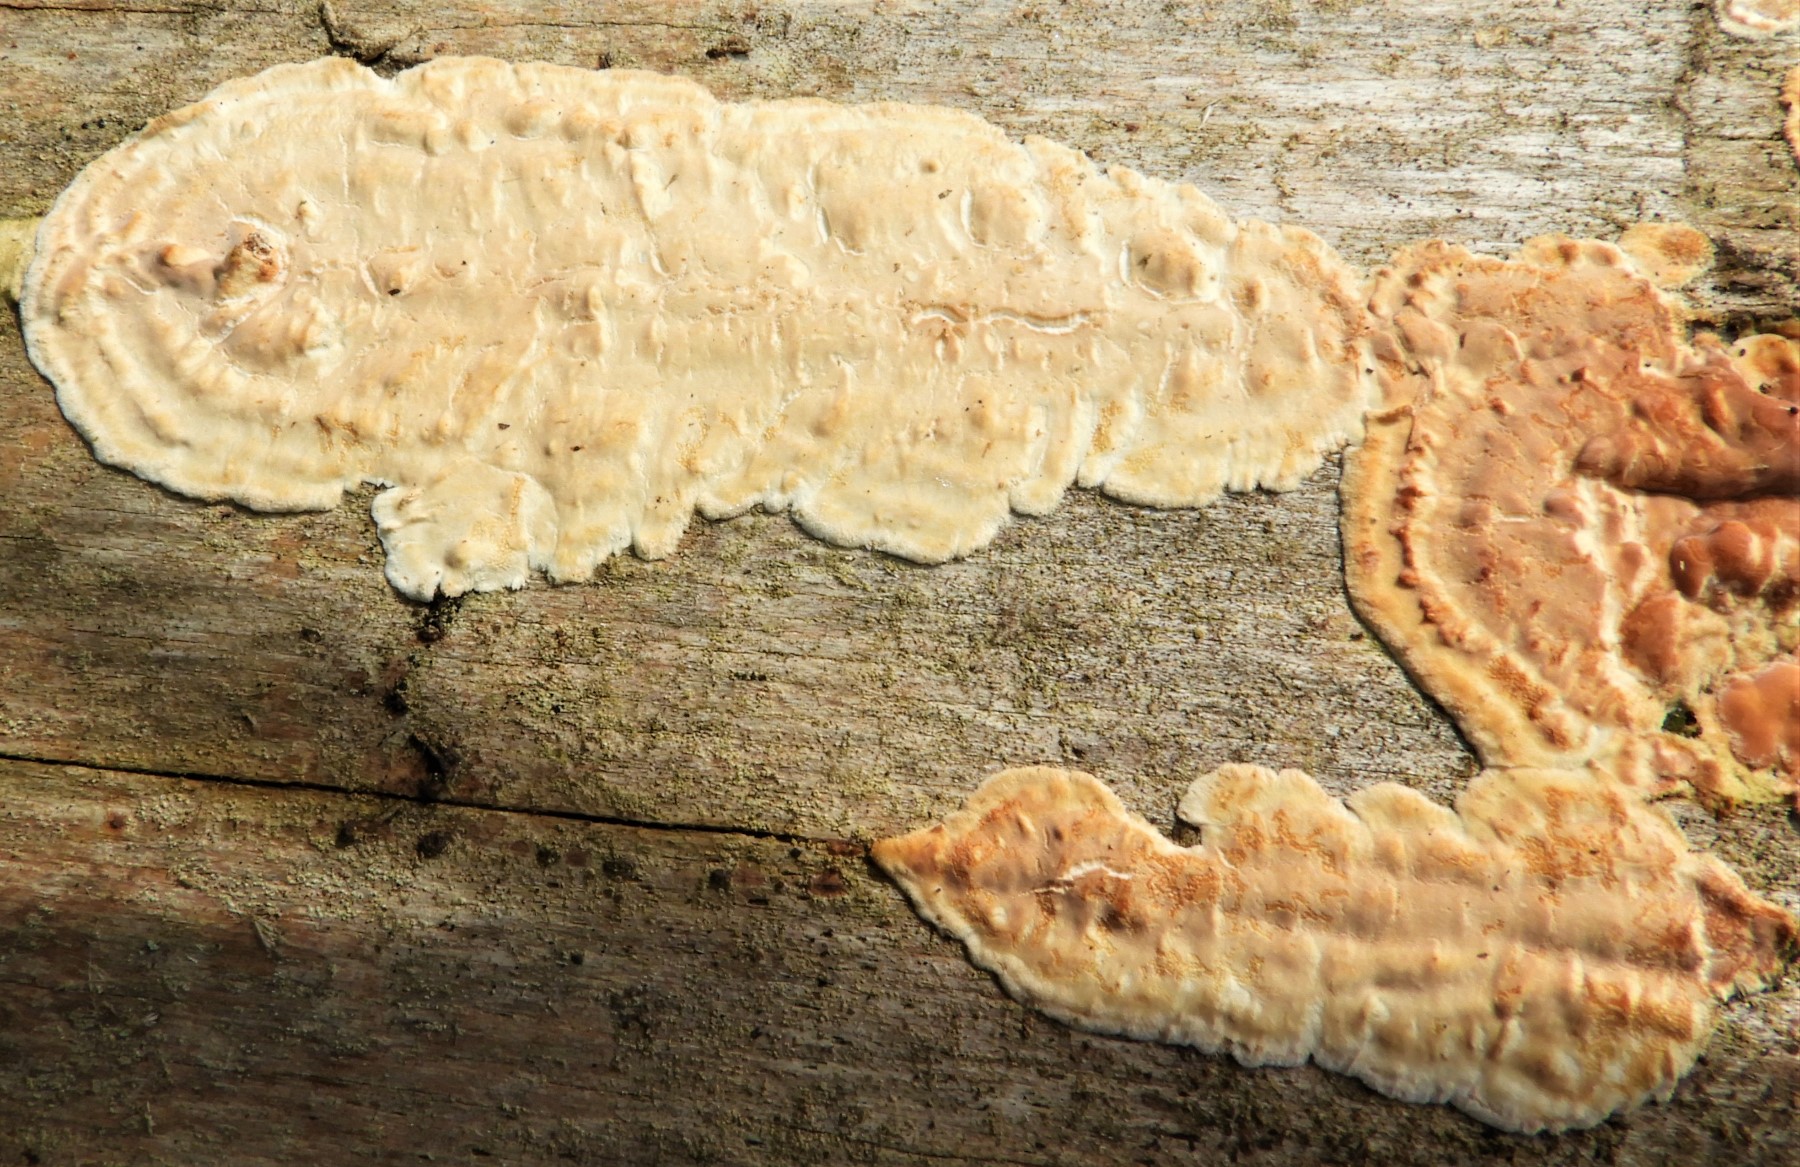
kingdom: Fungi
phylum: Basidiomycota
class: Agaricomycetes
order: Agaricales
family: Physalacriaceae
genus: Cylindrobasidium
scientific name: Cylindrobasidium evolvens
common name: sprækkehinde
